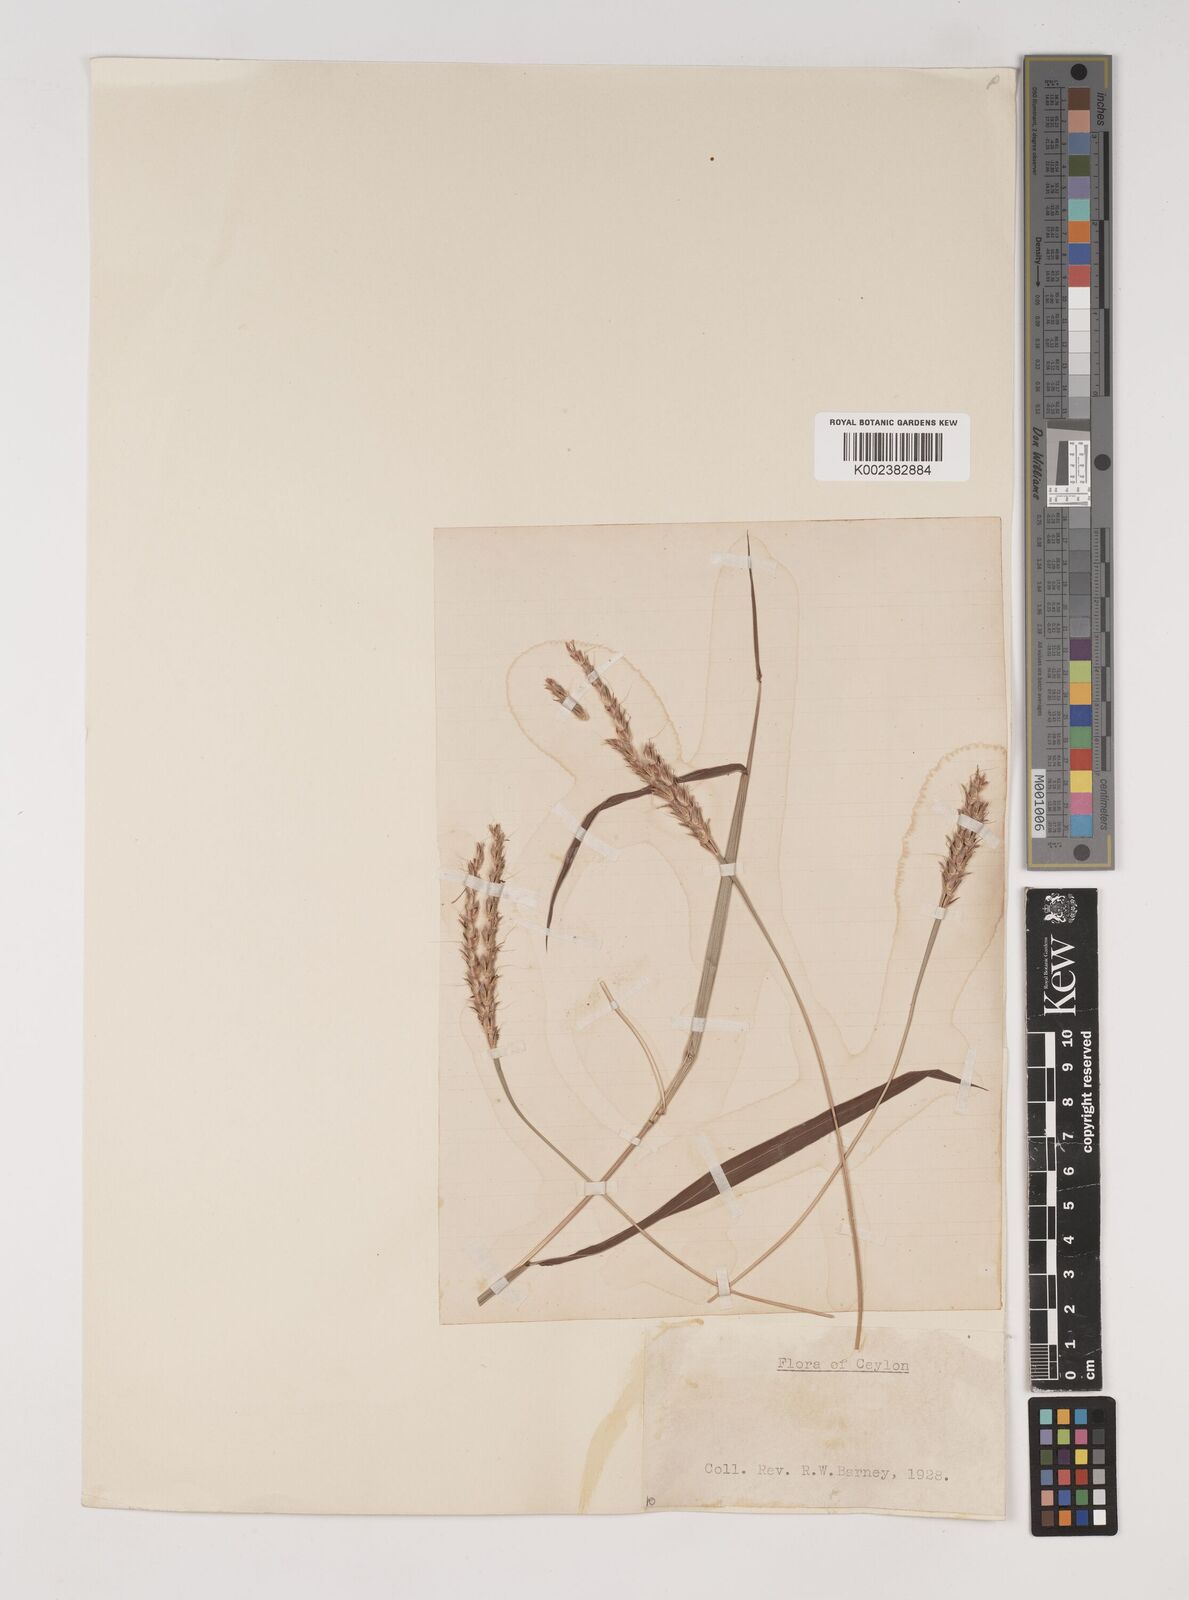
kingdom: Plantae
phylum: Tracheophyta
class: Liliopsida
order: Poales
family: Poaceae
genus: Ischaemum
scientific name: Ischaemum
